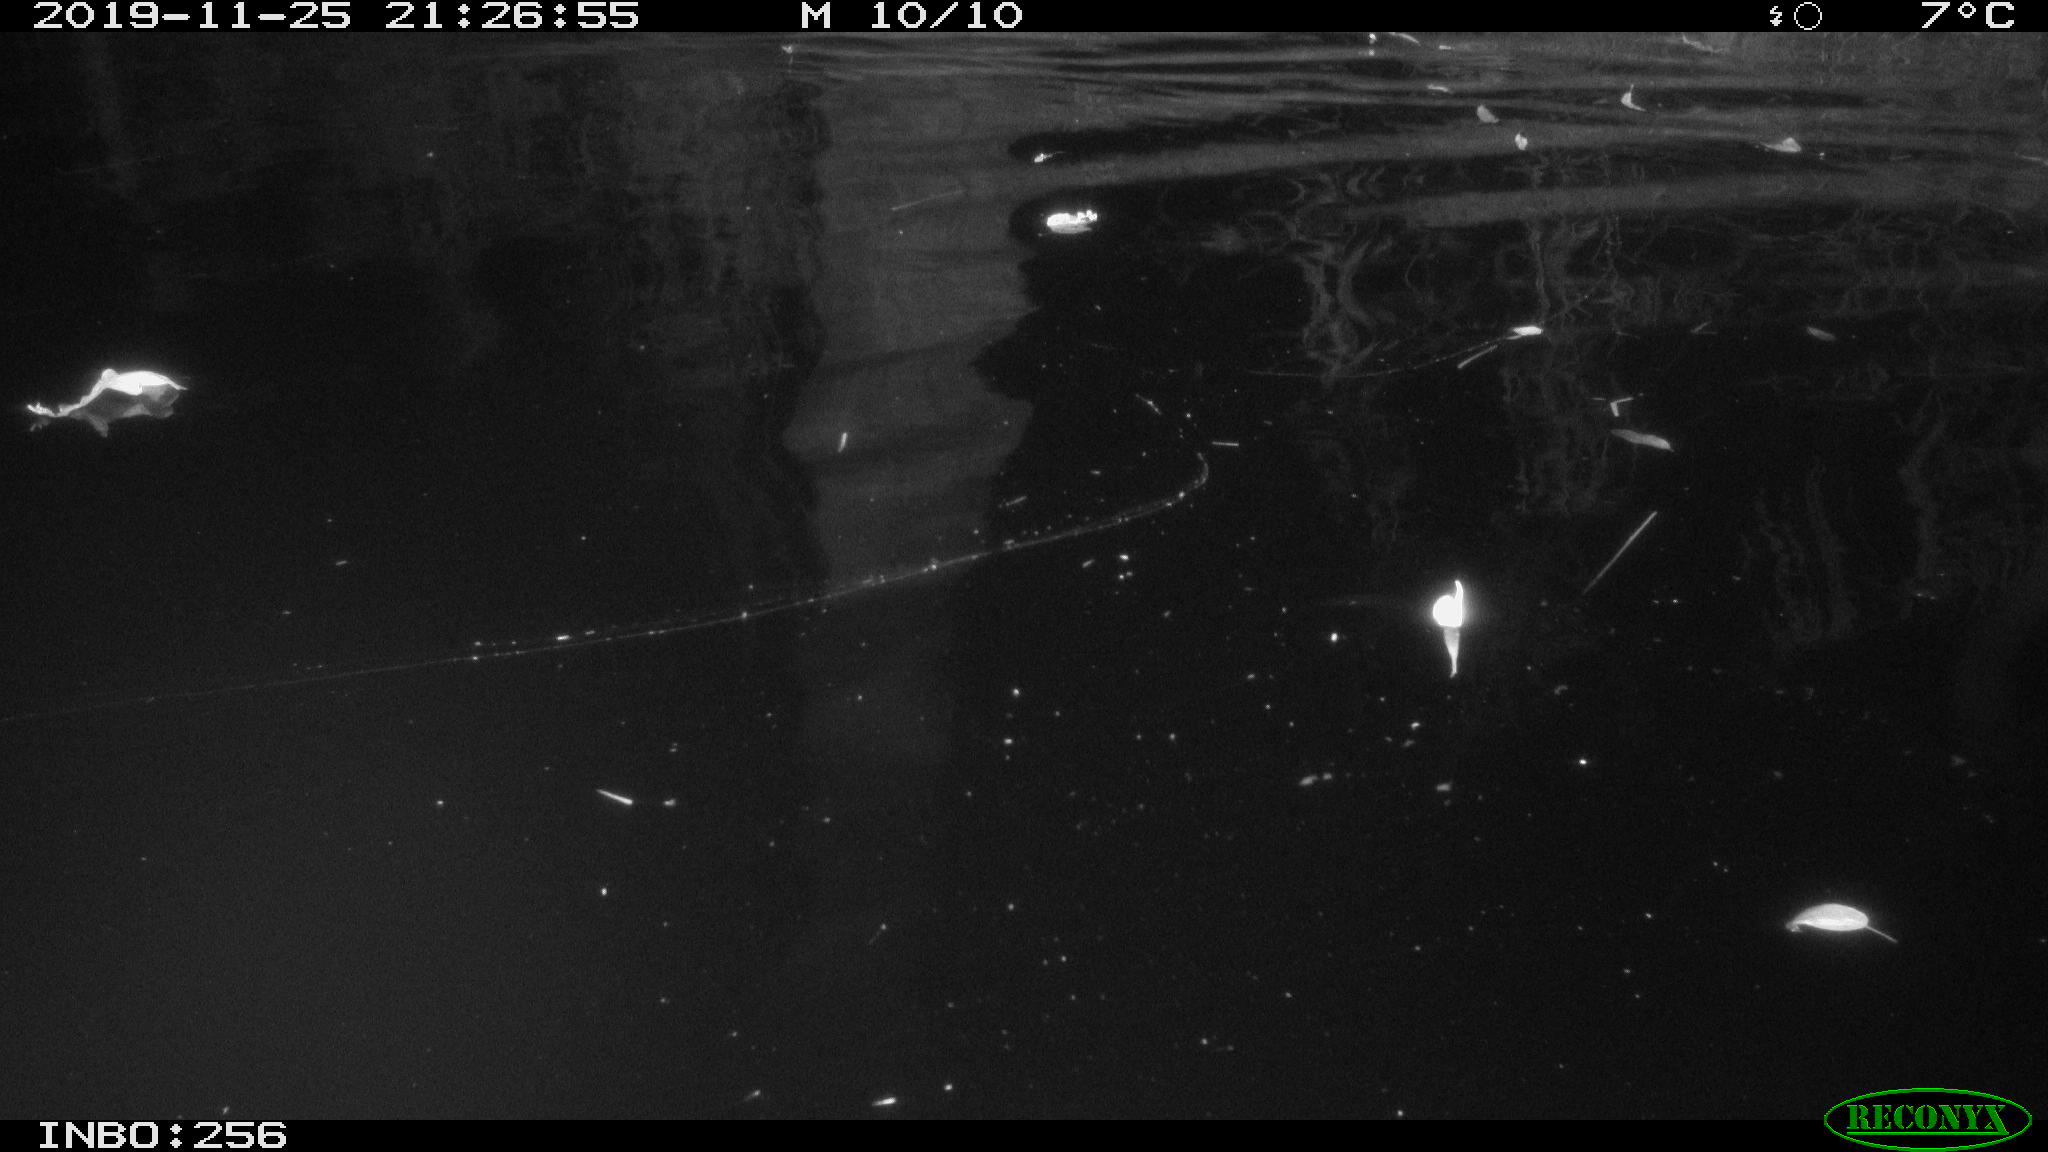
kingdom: Animalia
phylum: Chordata
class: Aves
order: Anseriformes
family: Anatidae
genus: Anas
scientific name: Anas platyrhynchos
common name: Mallard
